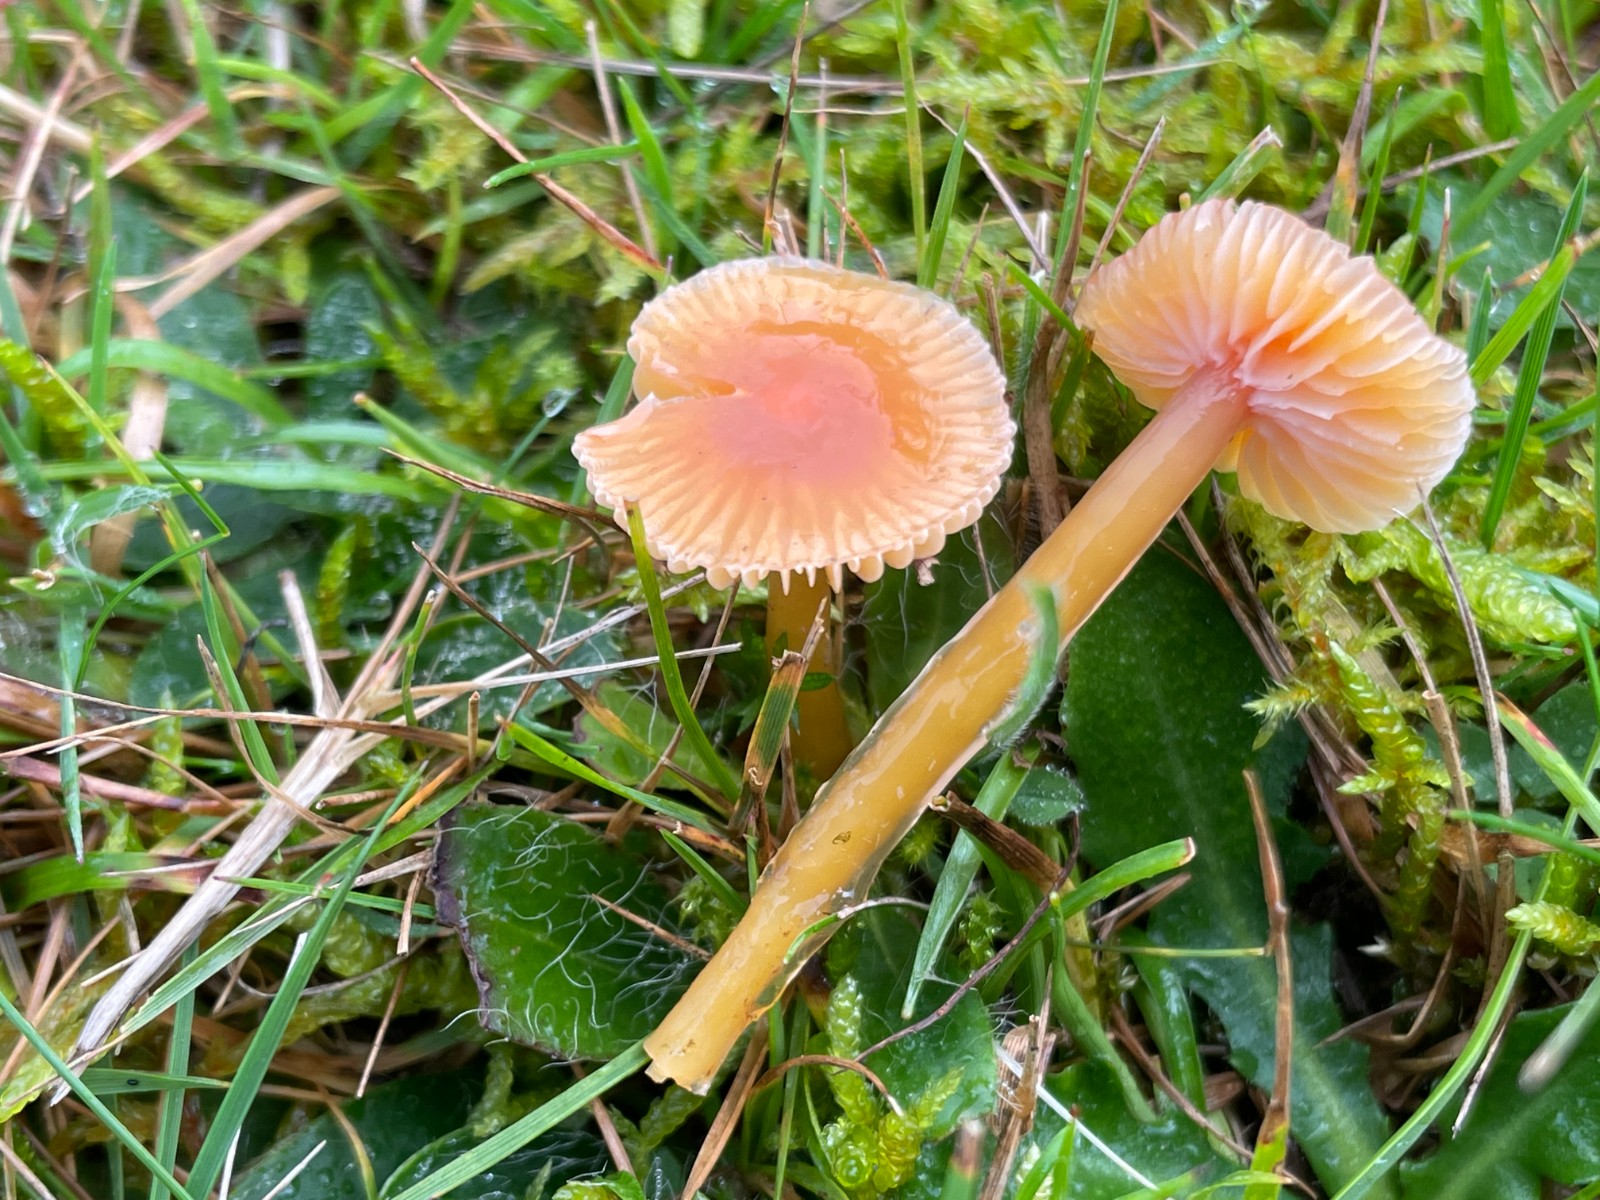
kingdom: Fungi
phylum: Basidiomycota
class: Agaricomycetes
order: Agaricales
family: Hygrophoraceae
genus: Gliophorus
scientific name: Gliophorus laetus
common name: brusk-vokshat
